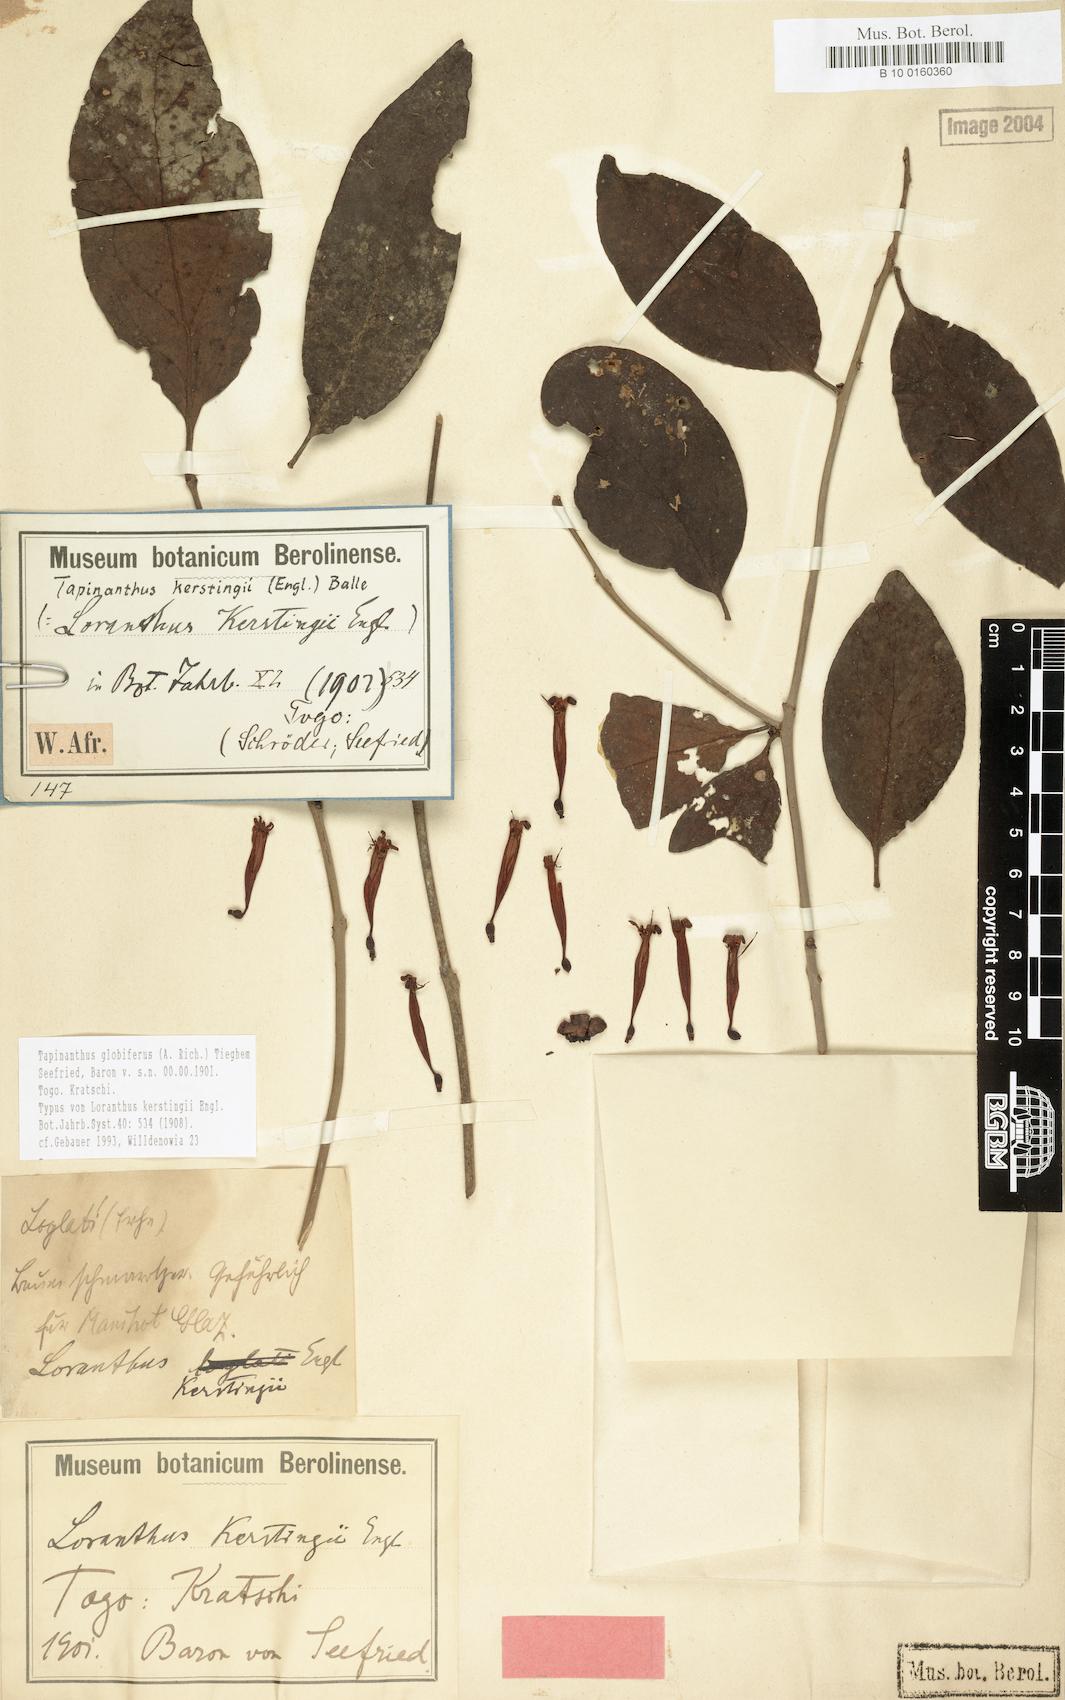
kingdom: Plantae
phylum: Tracheophyta
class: Magnoliopsida
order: Santalales
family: Loranthaceae
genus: Tapinanthus
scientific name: Tapinanthus globiferus
